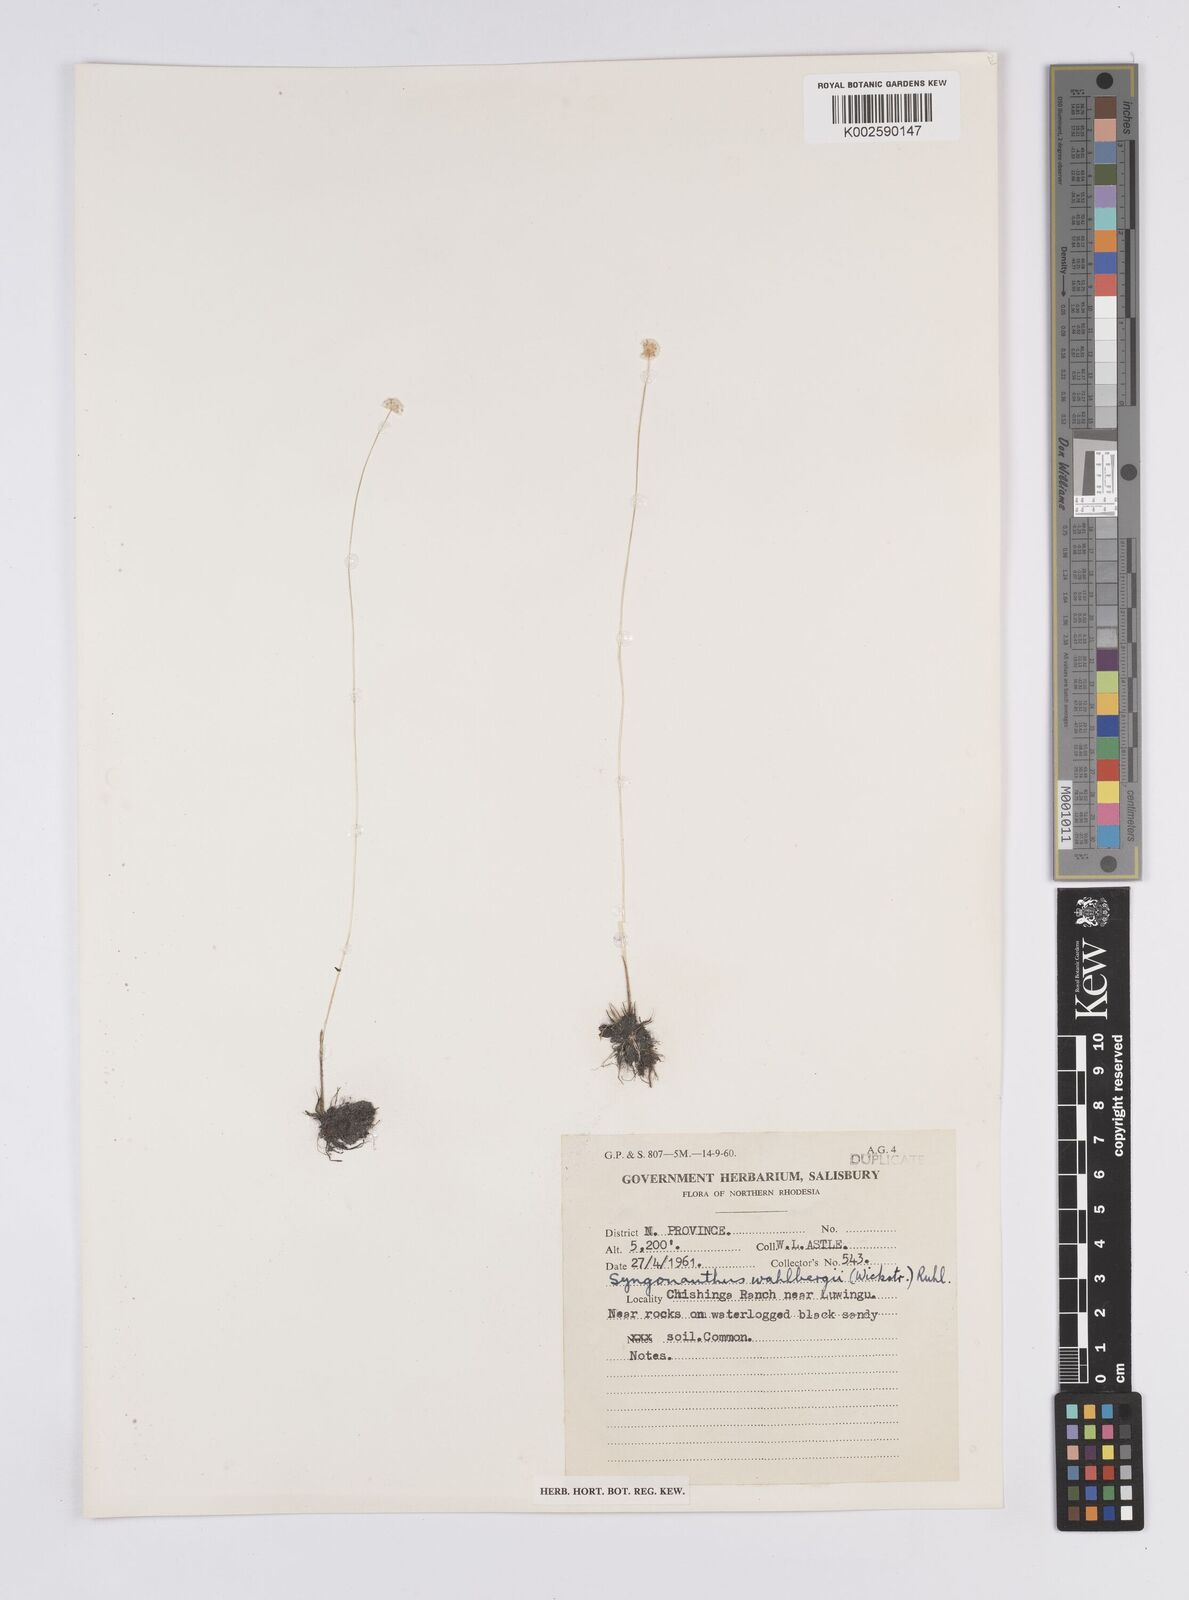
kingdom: Plantae
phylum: Tracheophyta
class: Liliopsida
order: Poales
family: Eriocaulaceae
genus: Syngonanthus
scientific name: Syngonanthus wahlbergii
